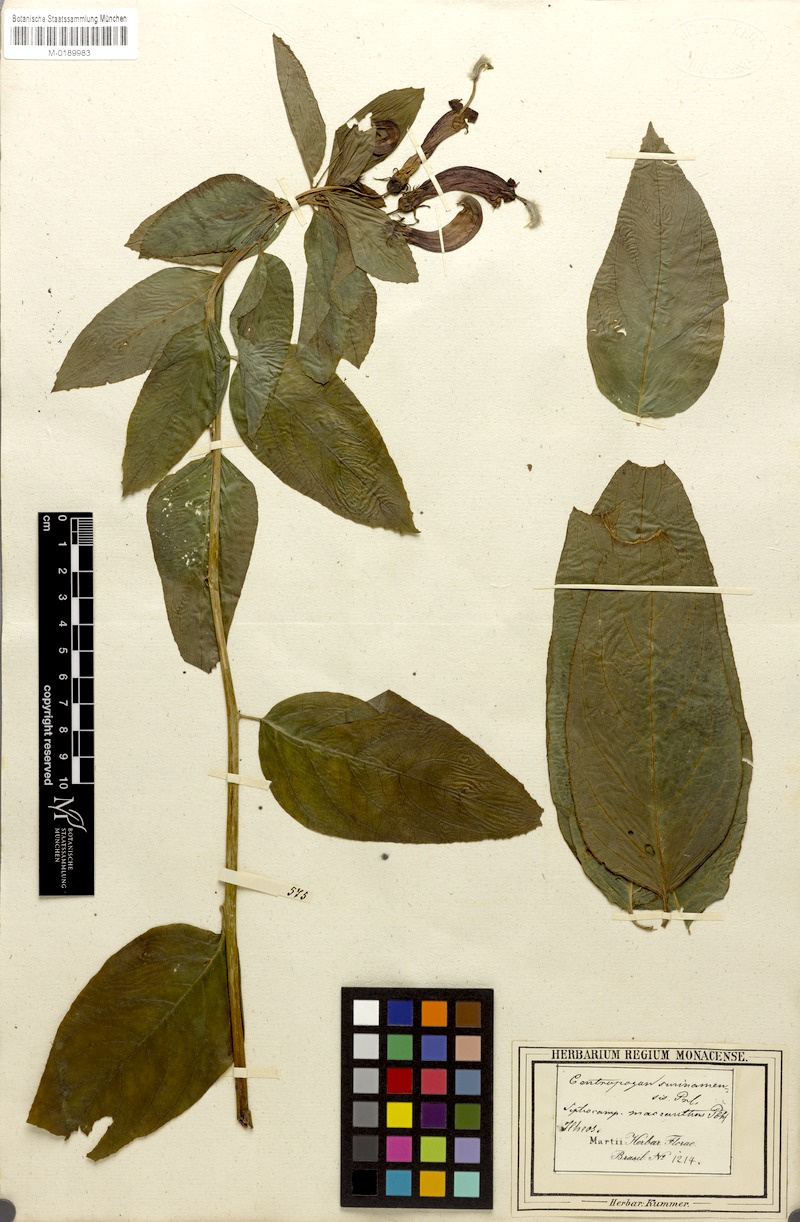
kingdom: Plantae
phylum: Tracheophyta
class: Magnoliopsida
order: Asterales
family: Campanulaceae
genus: Centropogon
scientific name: Centropogon cornutus
